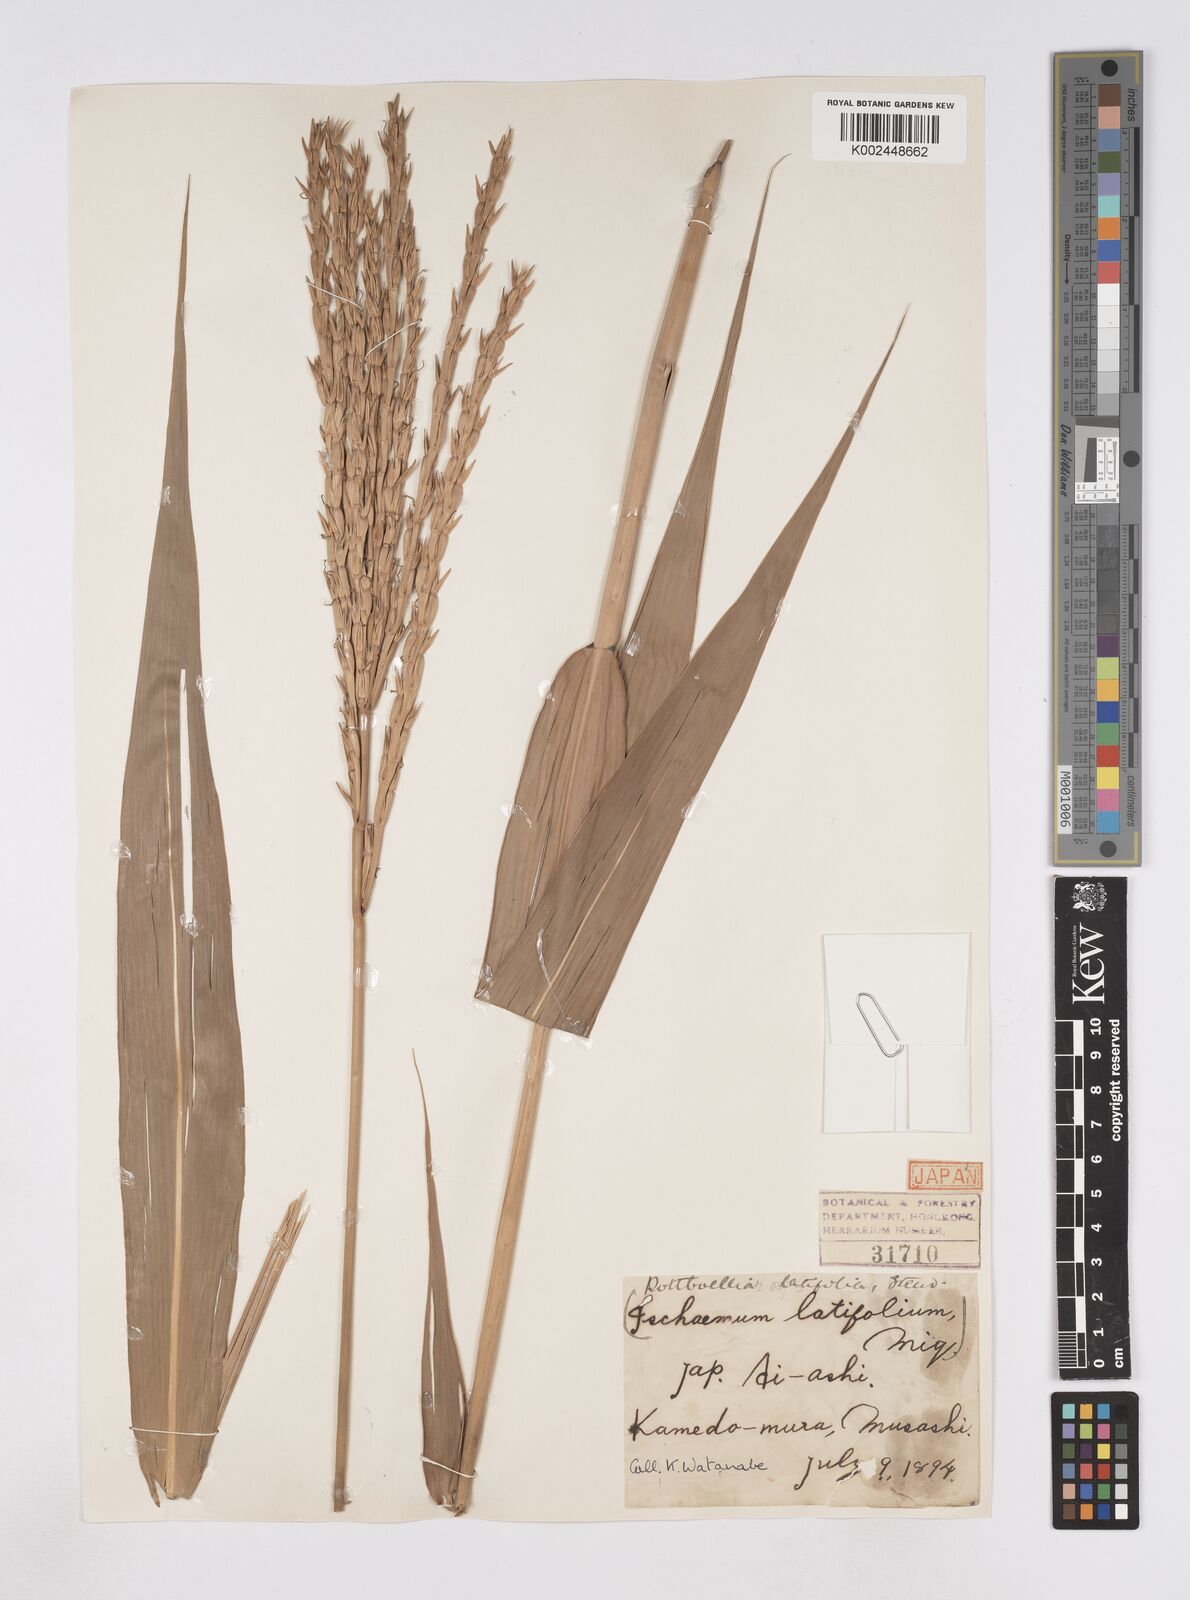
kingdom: Plantae
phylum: Tracheophyta
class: Liliopsida
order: Poales
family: Poaceae
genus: Phacelurus
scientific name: Phacelurus latifolius
